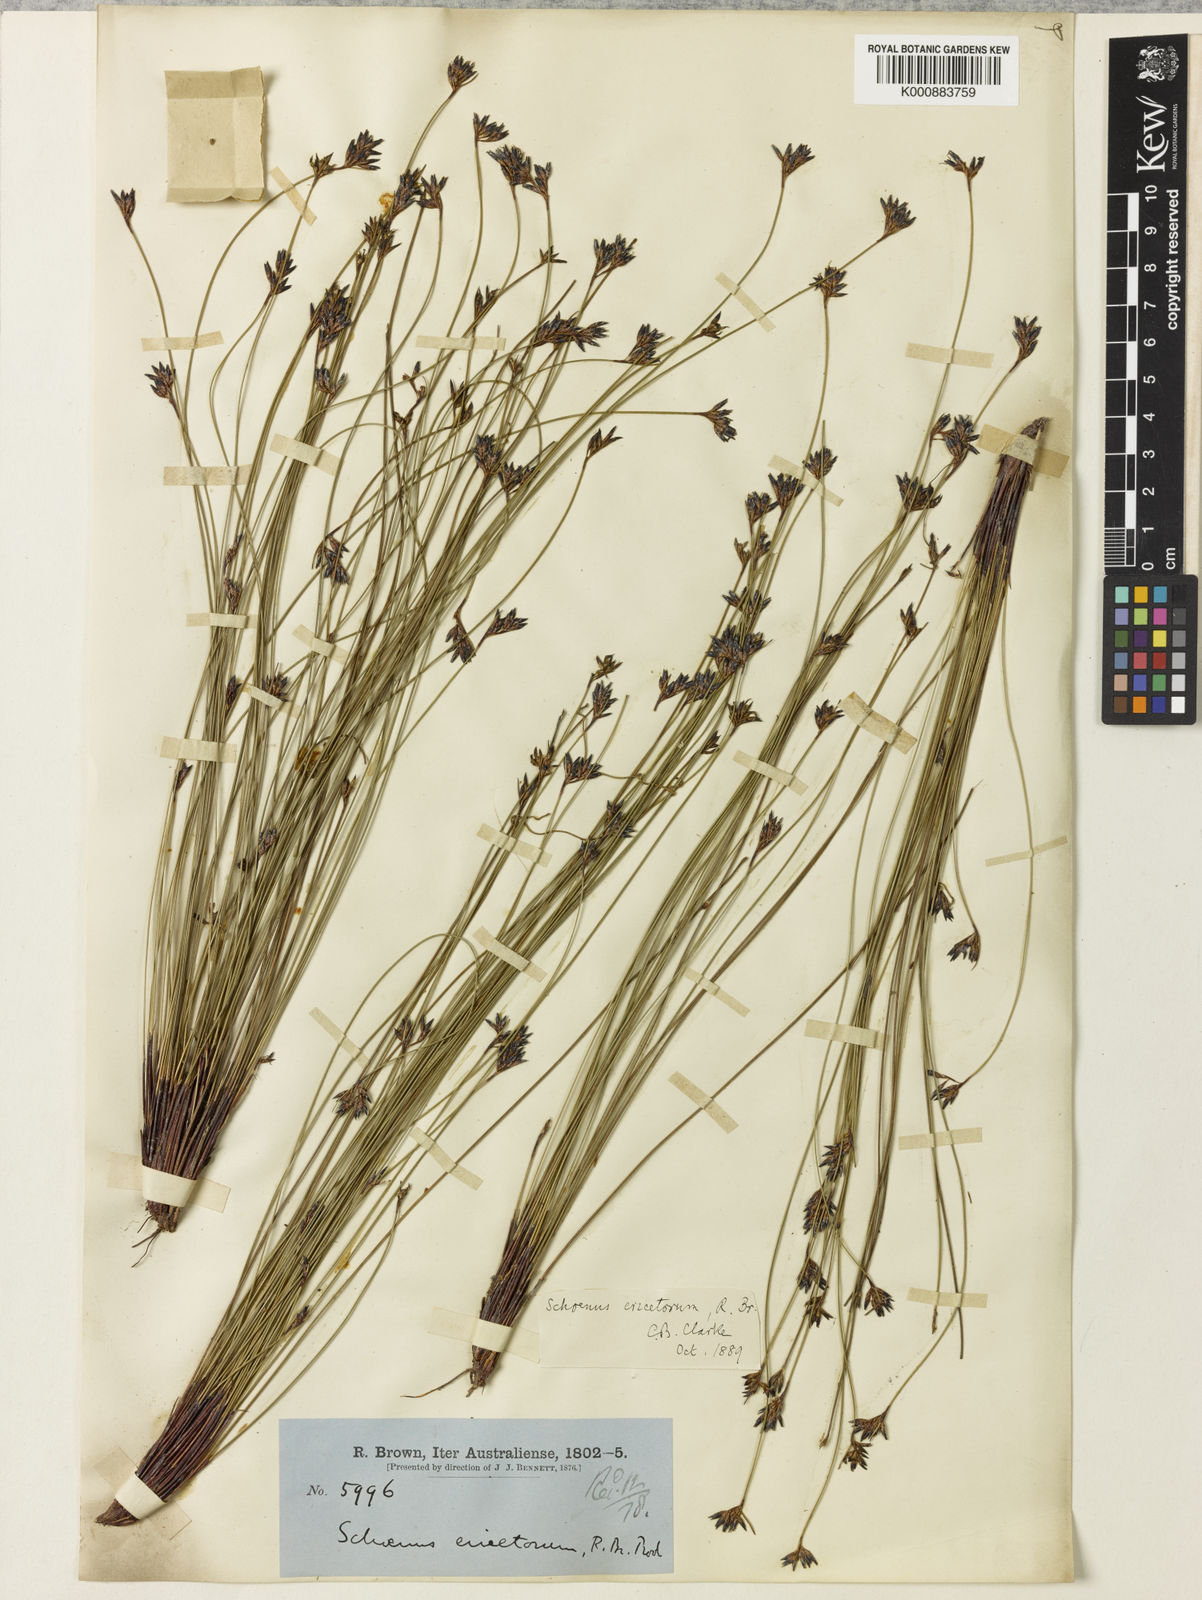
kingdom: Plantae
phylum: Tracheophyta
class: Liliopsida
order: Poales
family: Cyperaceae
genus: Schoenus
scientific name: Schoenus ericetorum
